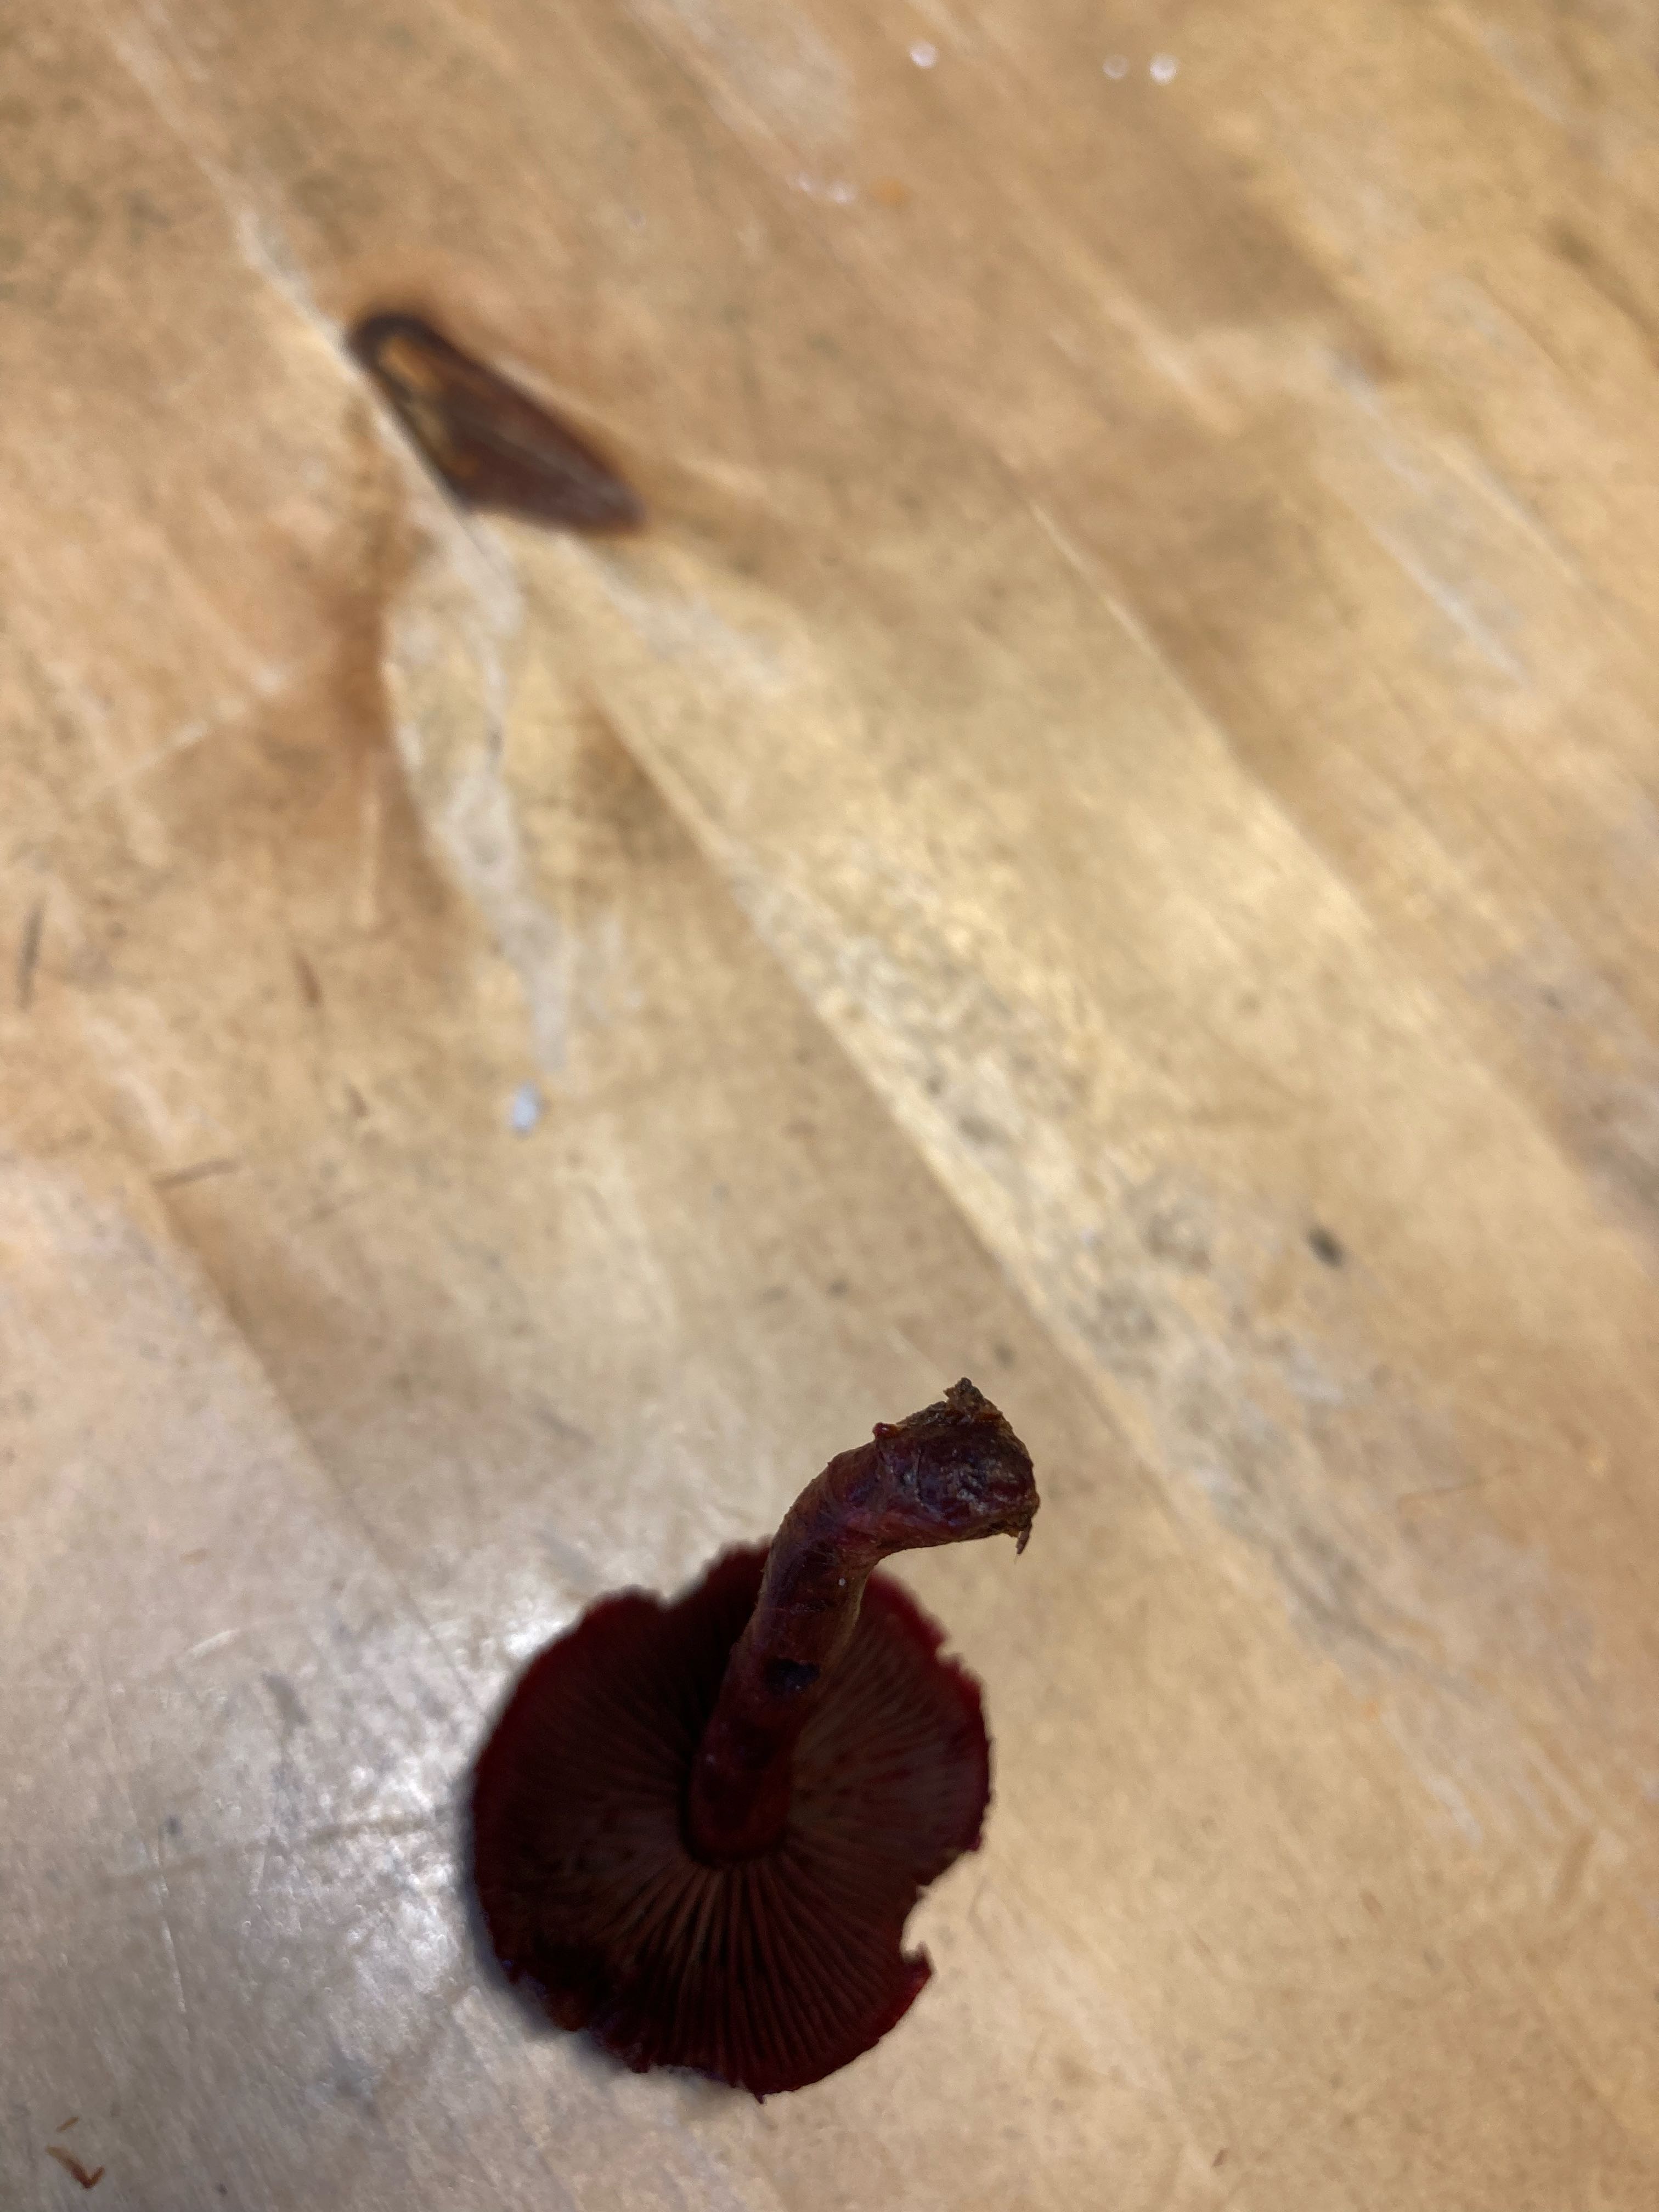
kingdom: Fungi
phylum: Basidiomycota
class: Agaricomycetes
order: Agaricales
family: Cortinariaceae
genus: Cortinarius
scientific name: Cortinarius sanguineus
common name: Bloodred webcap
